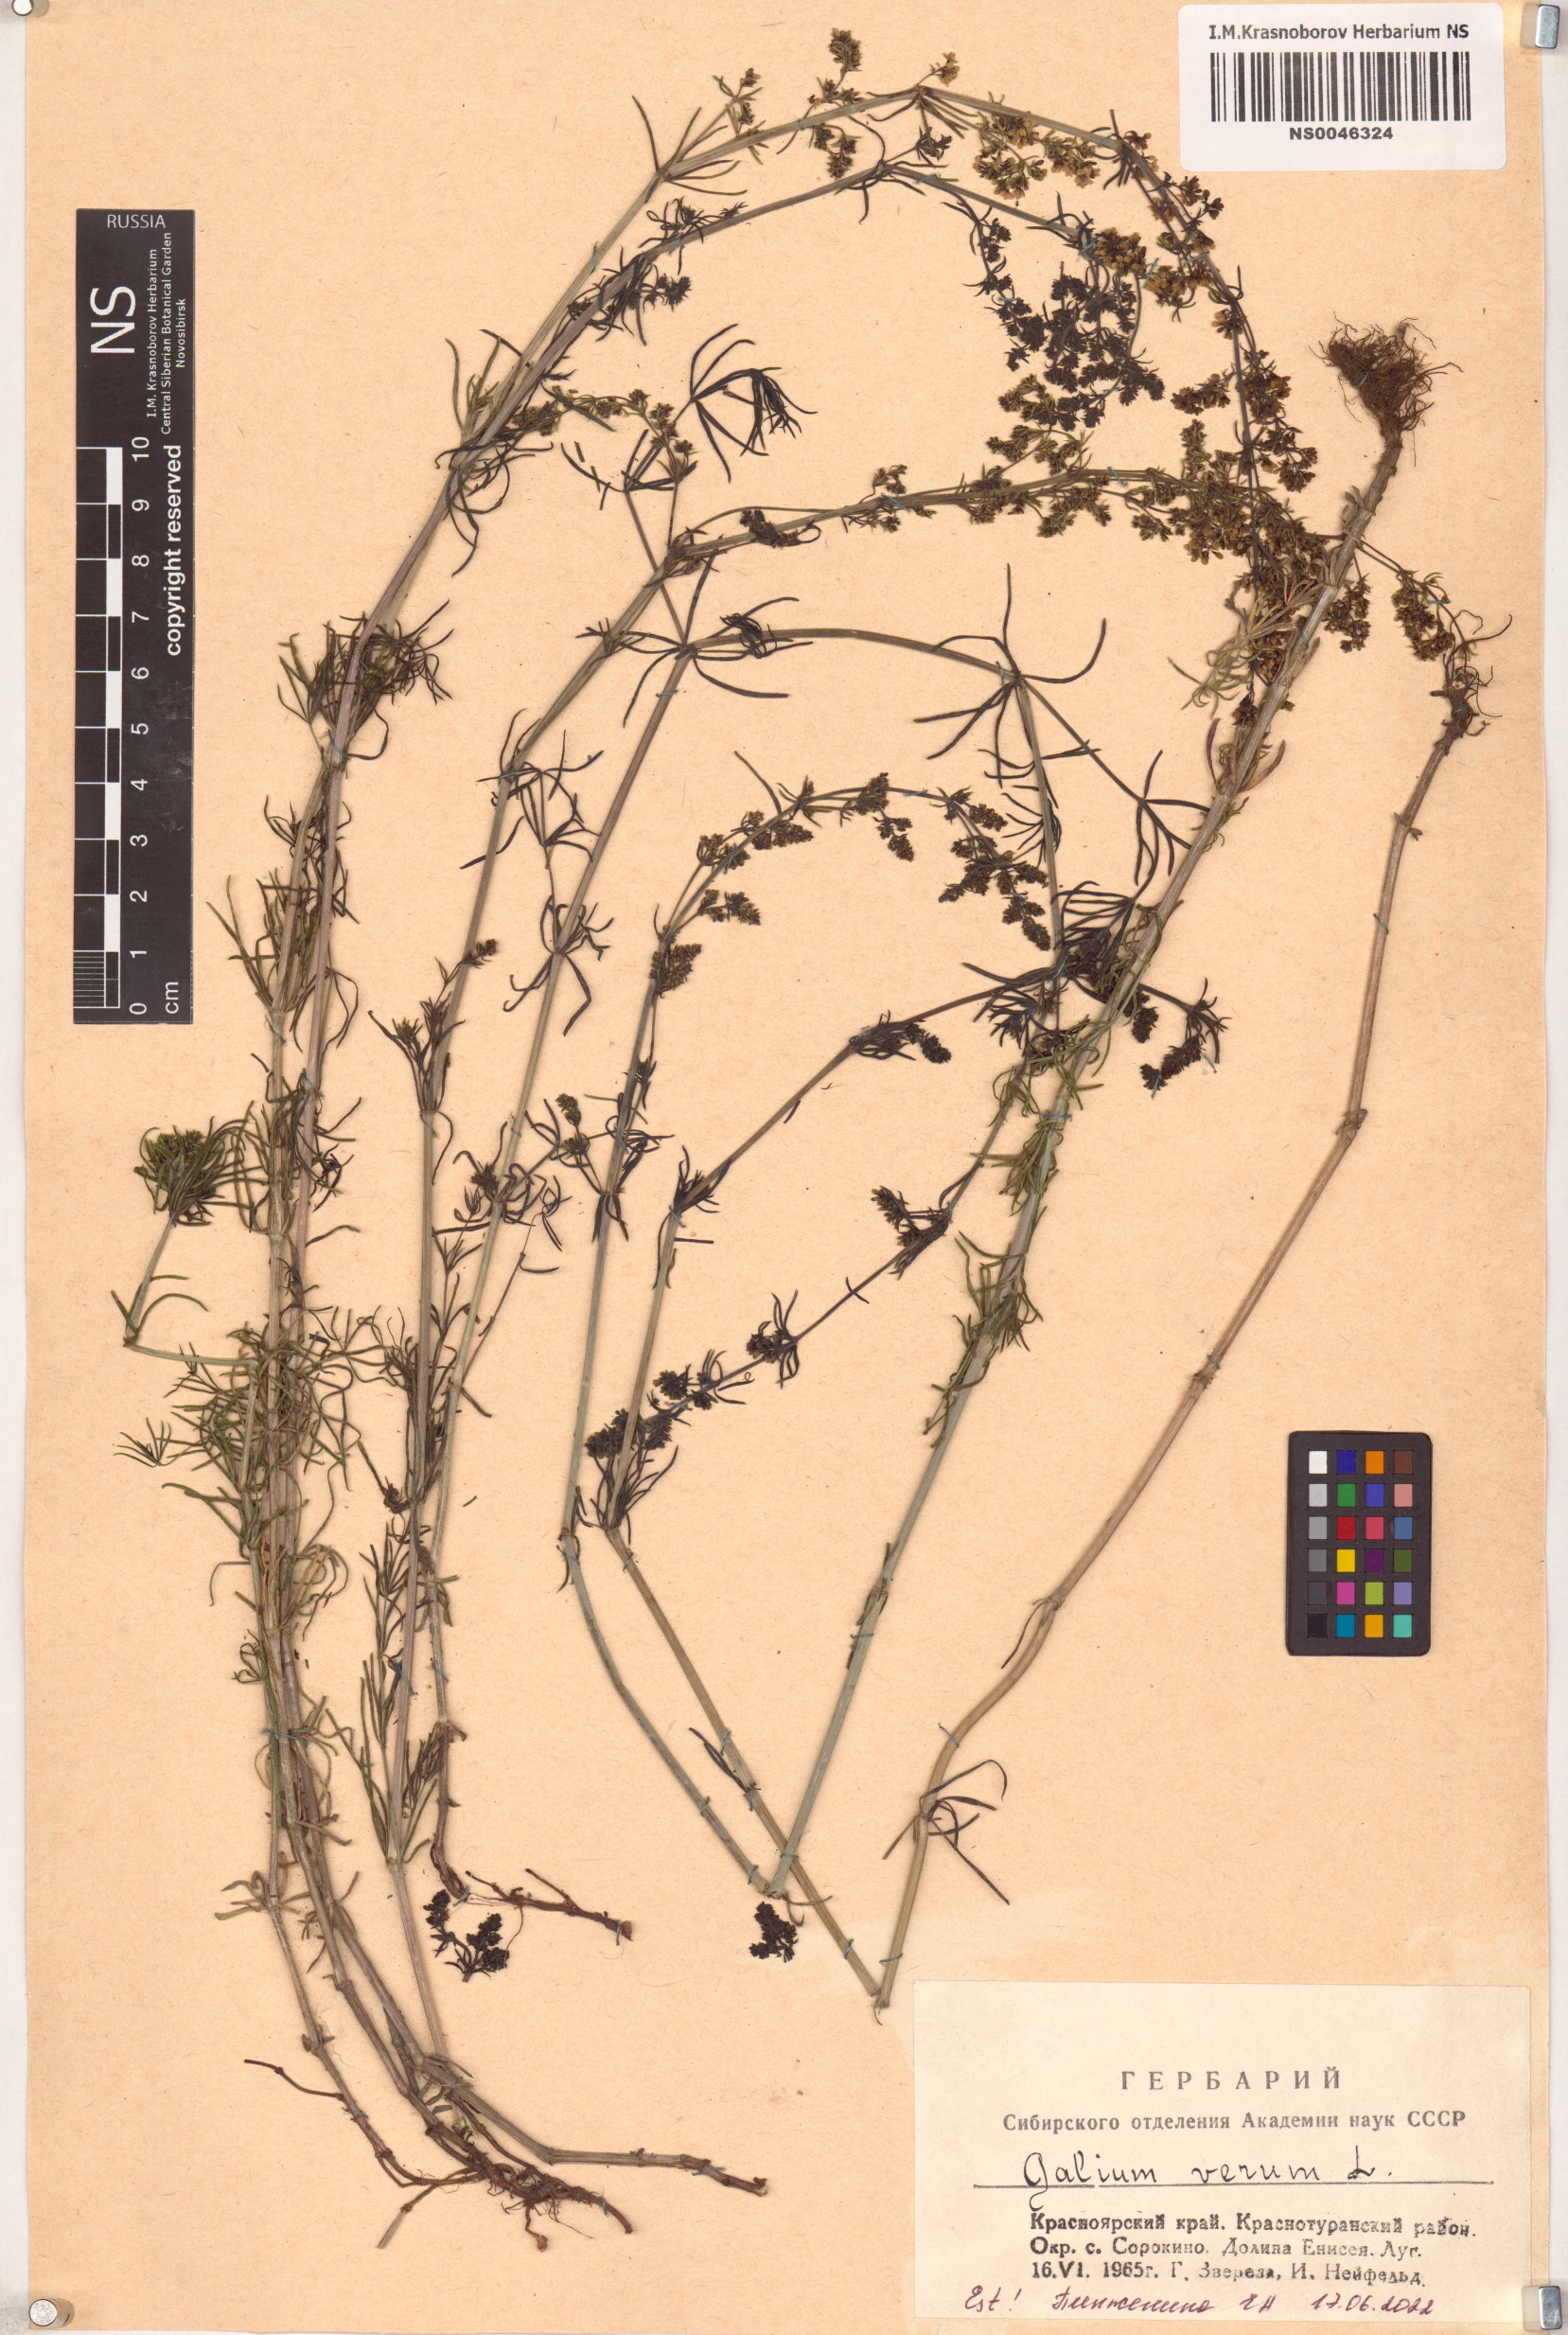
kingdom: Plantae
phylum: Tracheophyta
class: Magnoliopsida
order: Gentianales
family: Rubiaceae
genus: Galium
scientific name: Galium verum
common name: Lady's bedstraw
